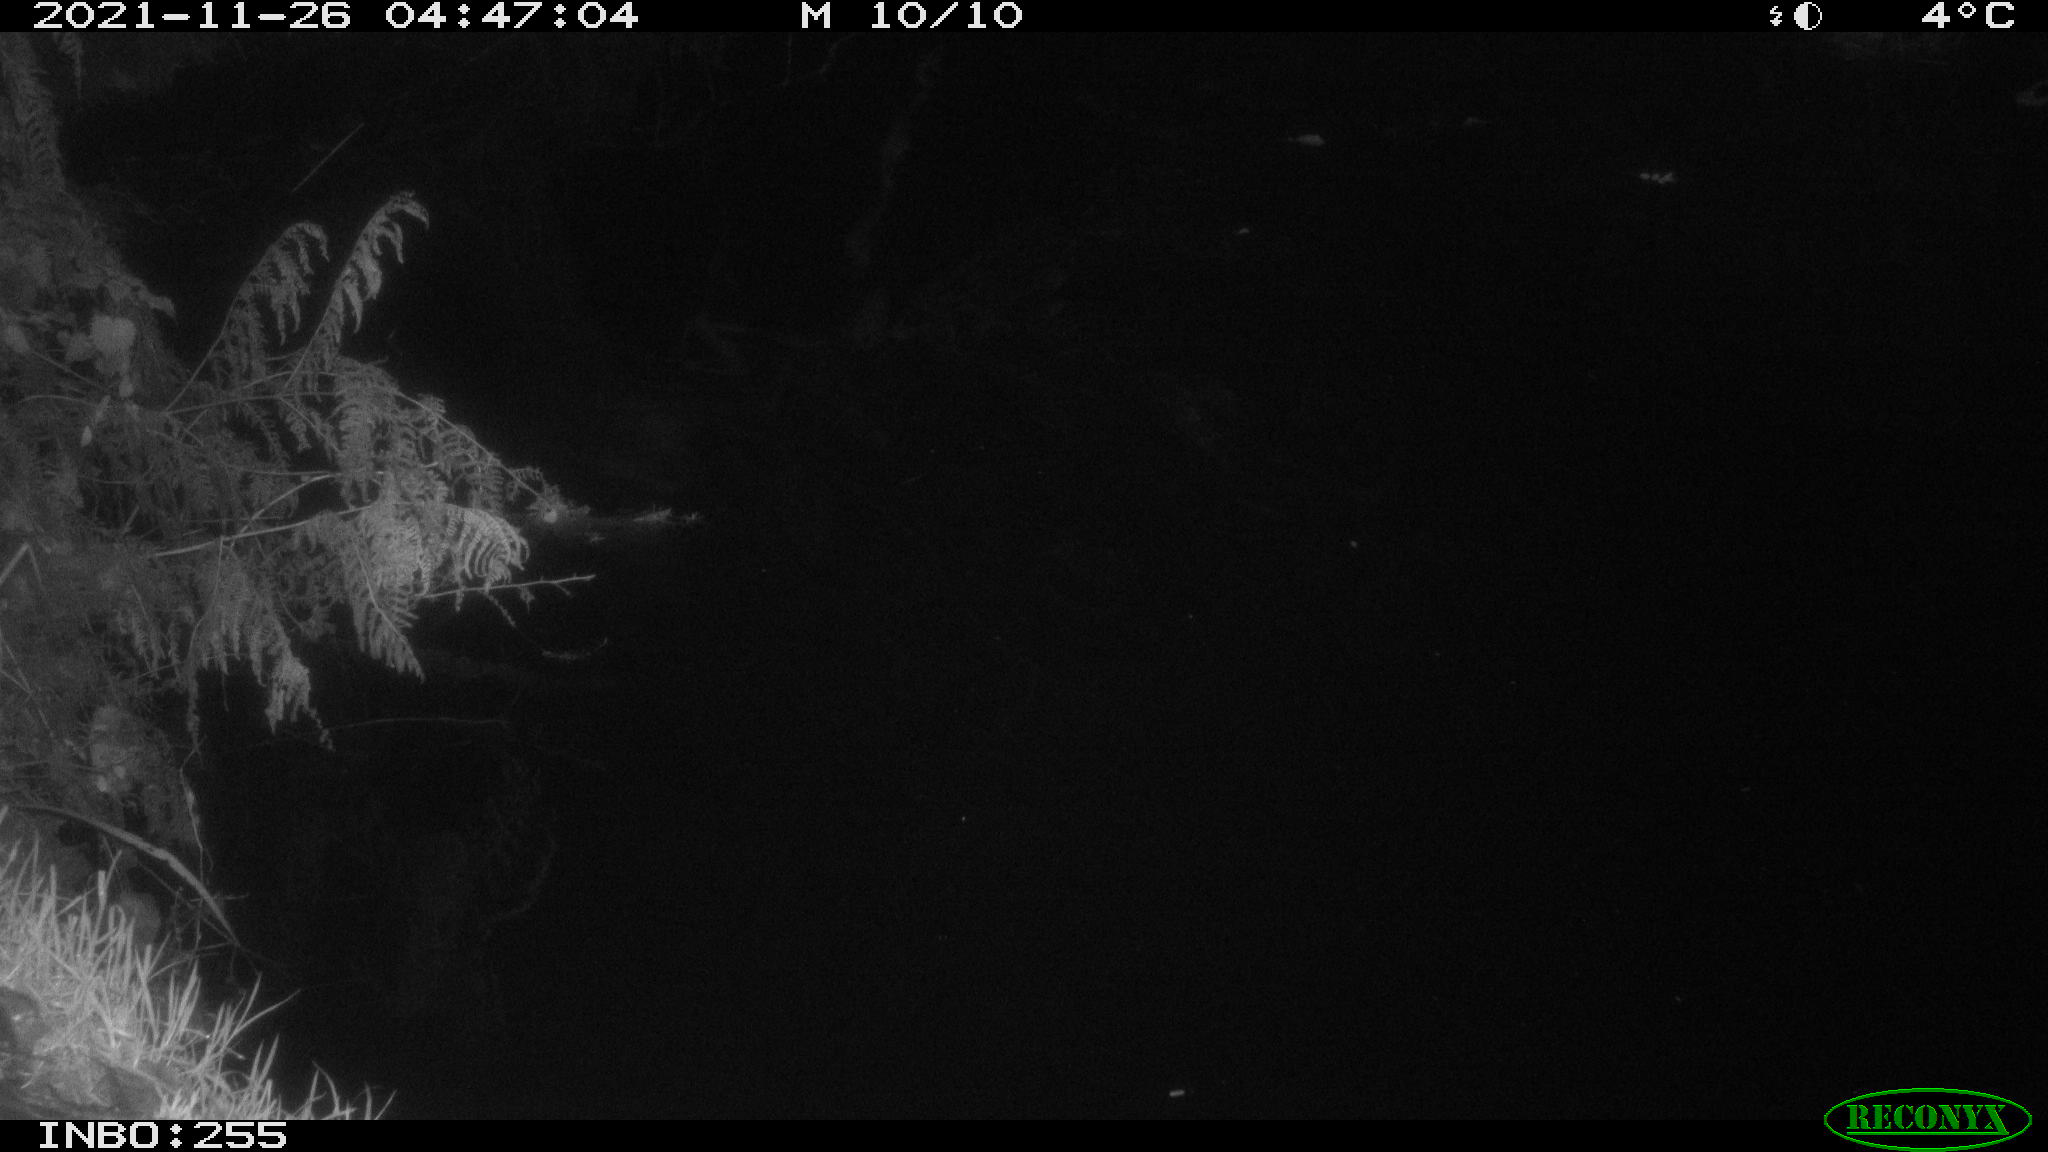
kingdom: Animalia
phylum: Chordata
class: Aves
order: Anseriformes
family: Anatidae
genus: Anas
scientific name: Anas platyrhynchos
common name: Mallard
